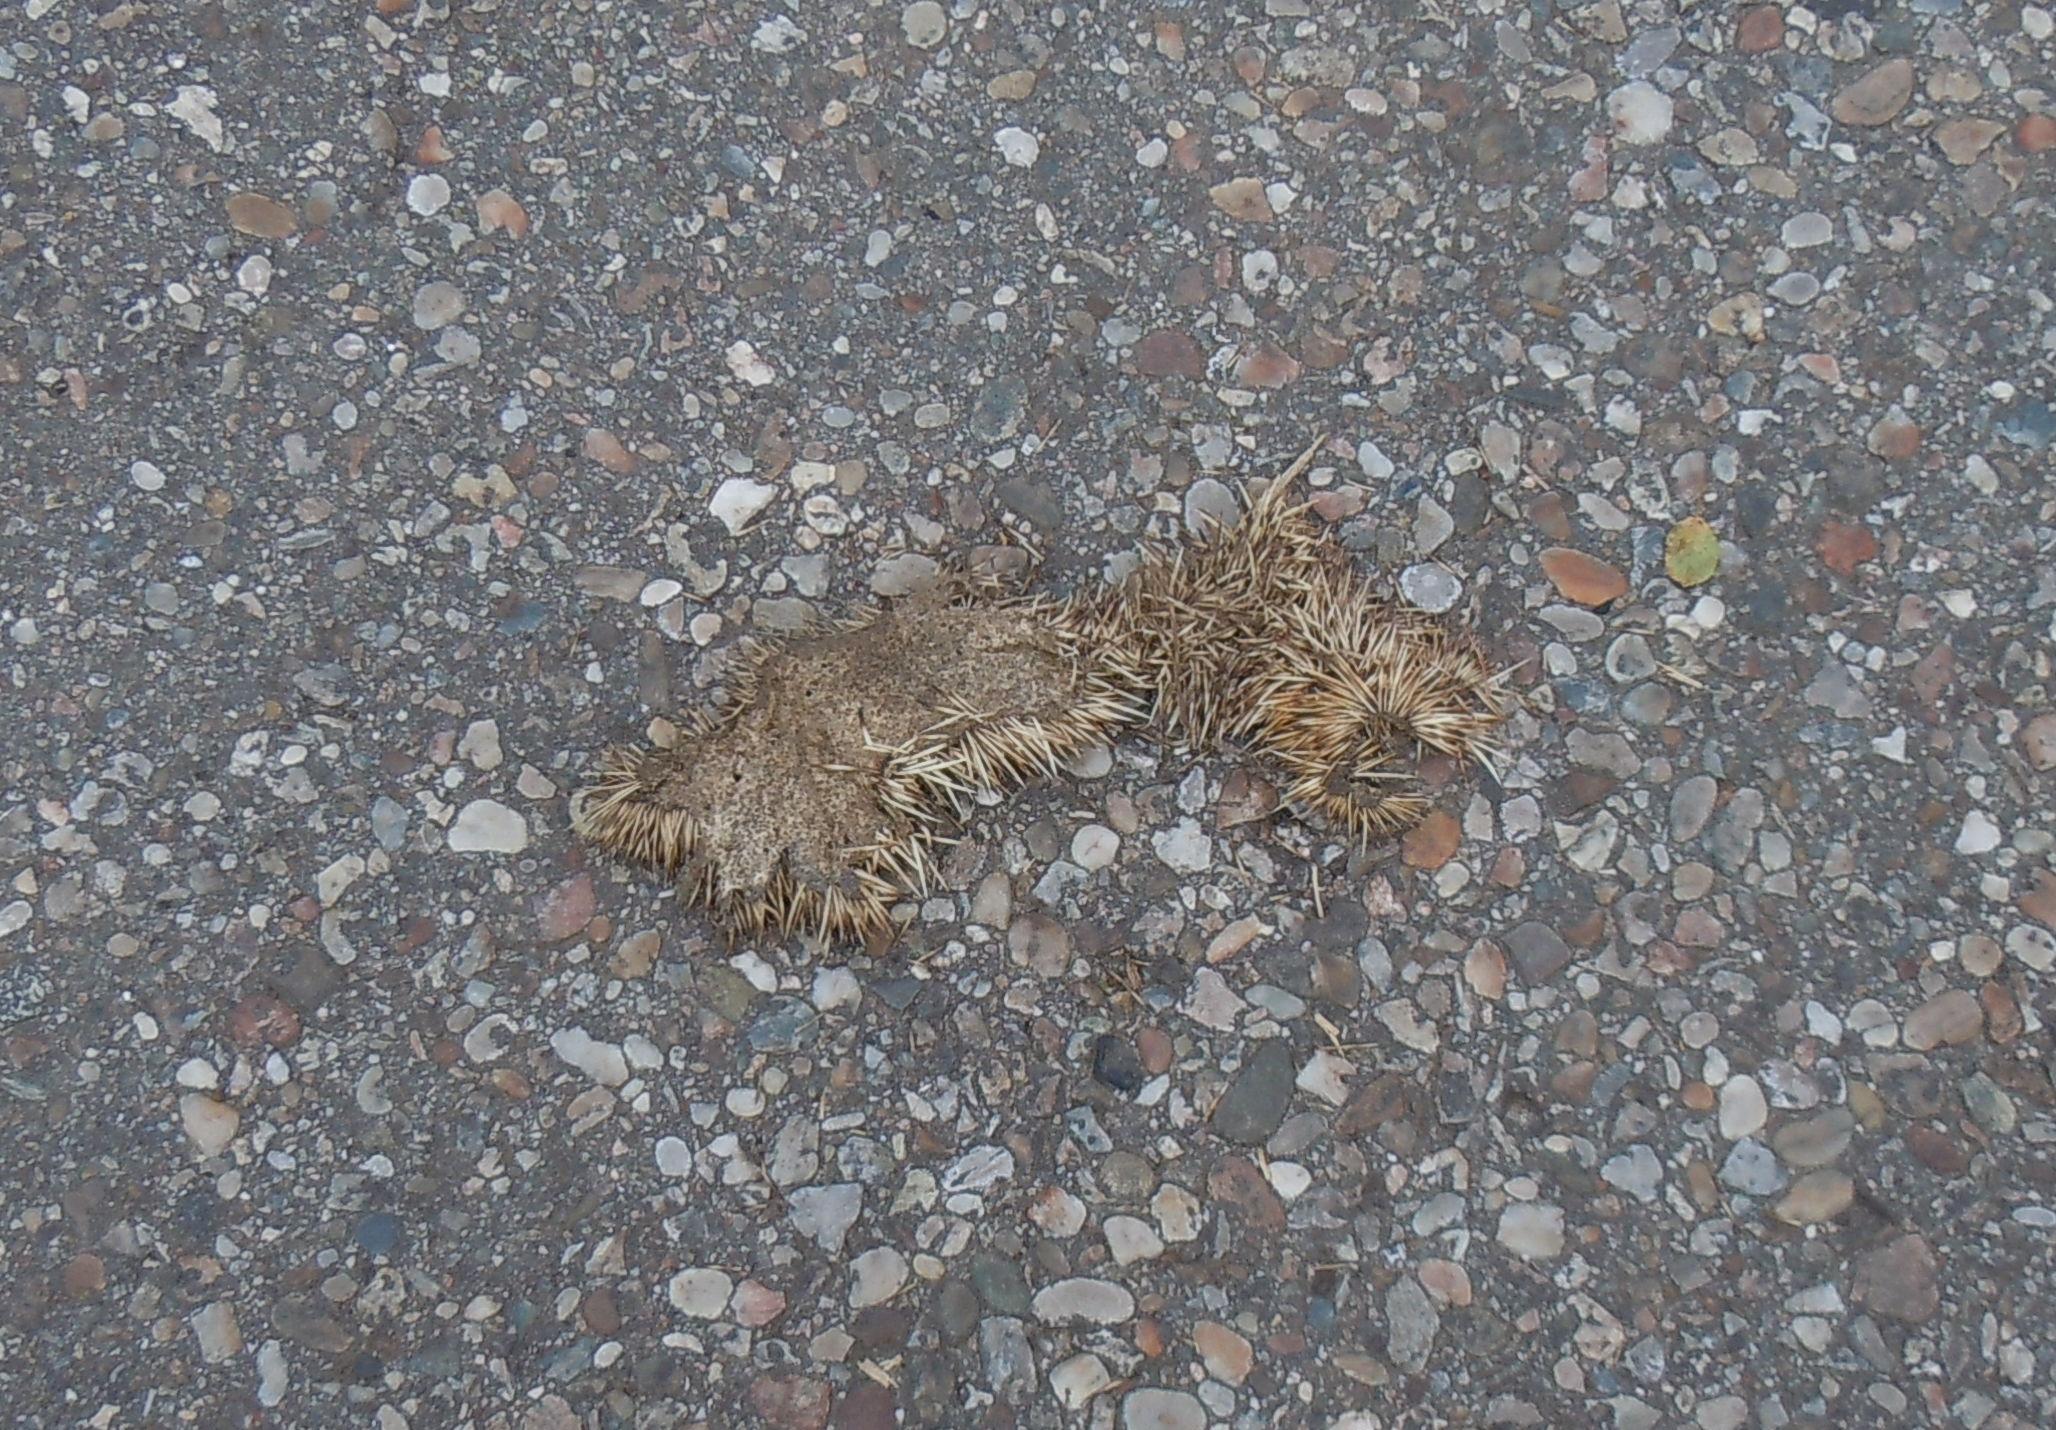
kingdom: Animalia
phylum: Chordata
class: Mammalia
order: Erinaceomorpha
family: Erinaceidae
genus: Erinaceus
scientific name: Erinaceus
